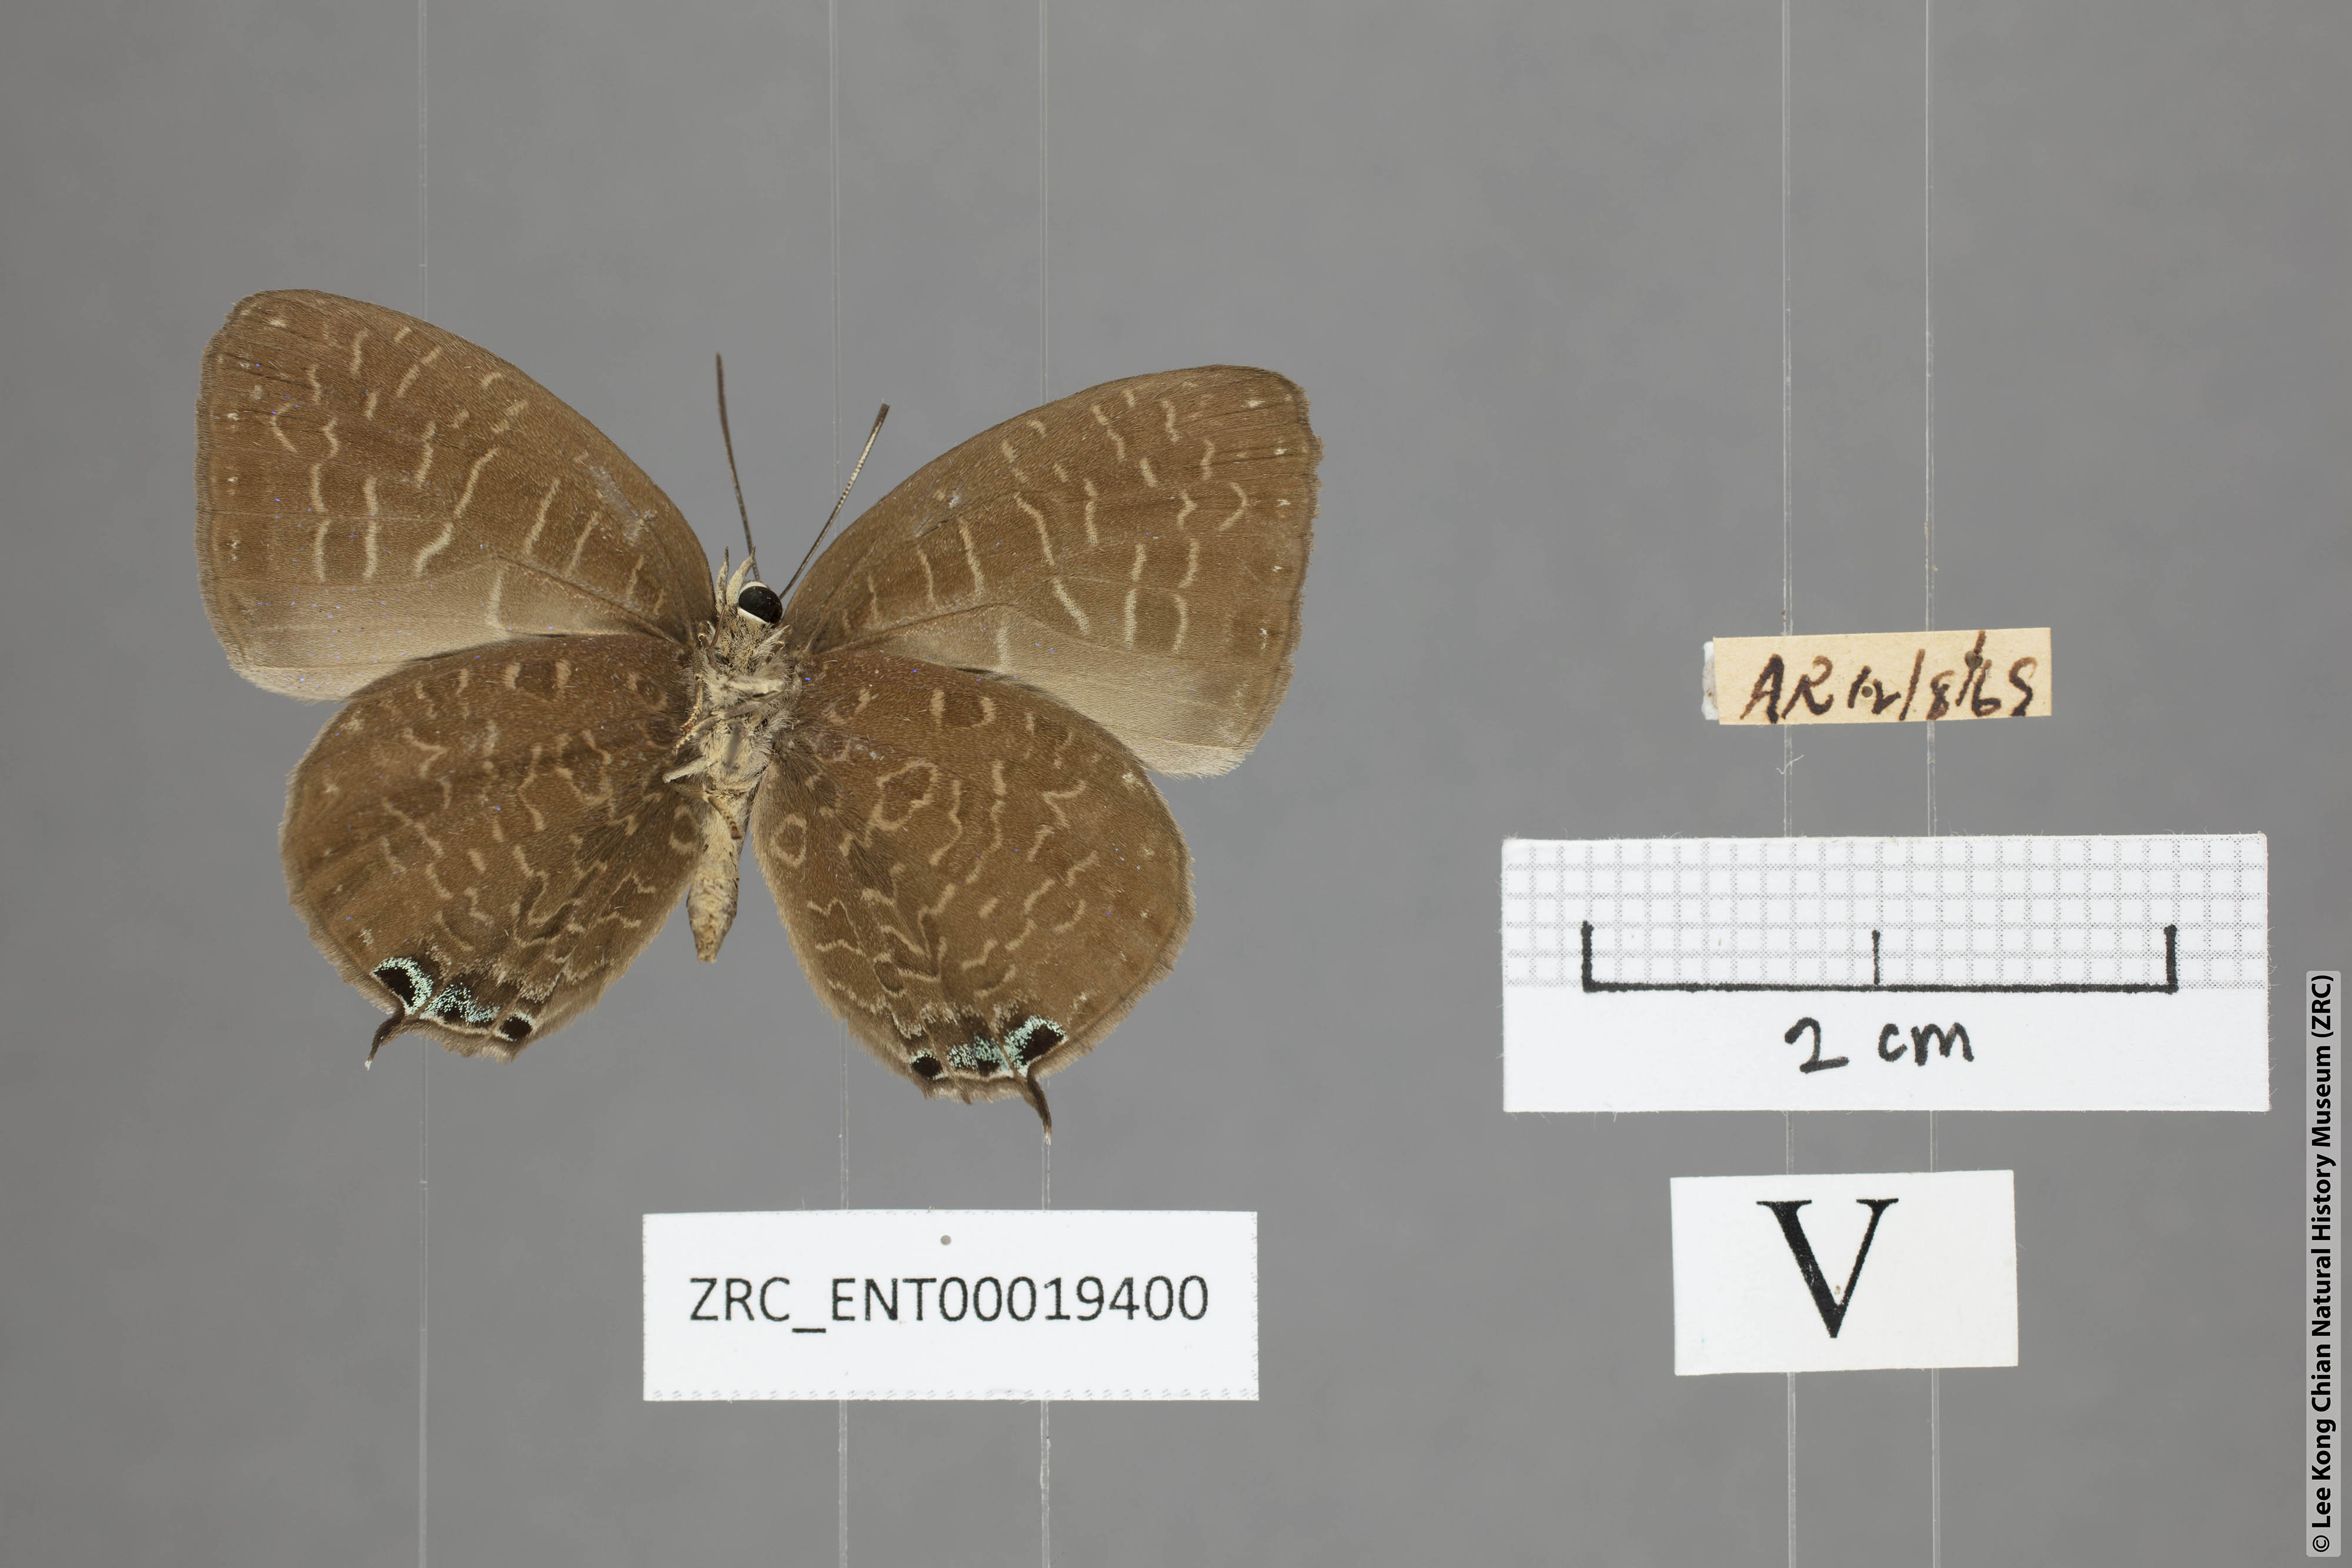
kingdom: Animalia
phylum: Arthropoda
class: Insecta
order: Lepidoptera
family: Lycaenidae
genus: Arhopala
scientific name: Arhopala democritus
